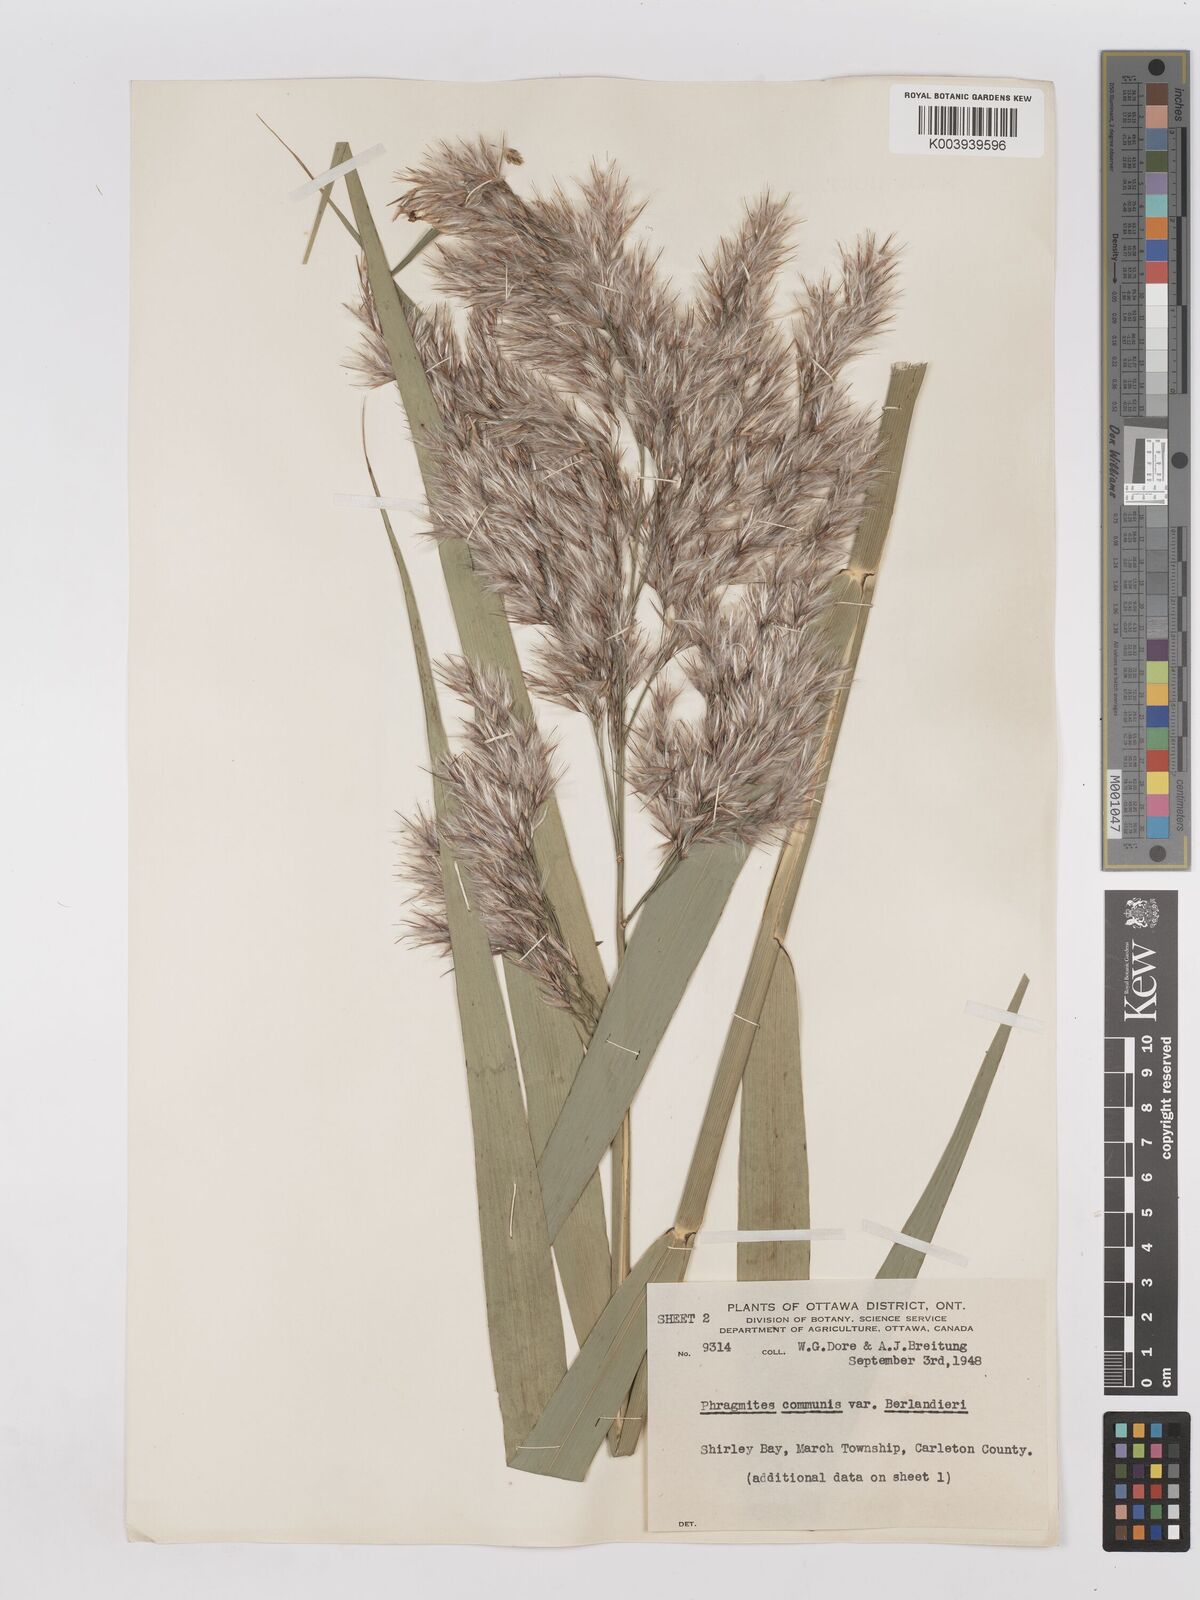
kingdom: Plantae
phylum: Tracheophyta
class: Liliopsida
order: Poales
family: Poaceae
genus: Phragmites
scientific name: Phragmites australis
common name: Common reed
